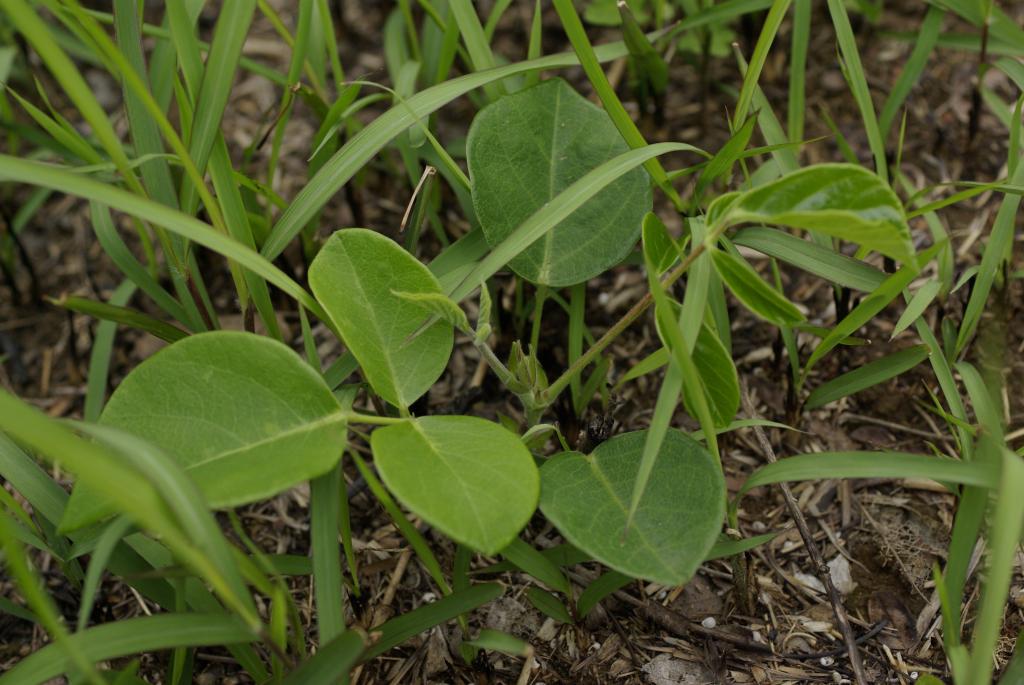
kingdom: Plantae
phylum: Tracheophyta
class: Magnoliopsida
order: Fabales
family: Fabaceae
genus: Uraria
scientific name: Uraria crinita
